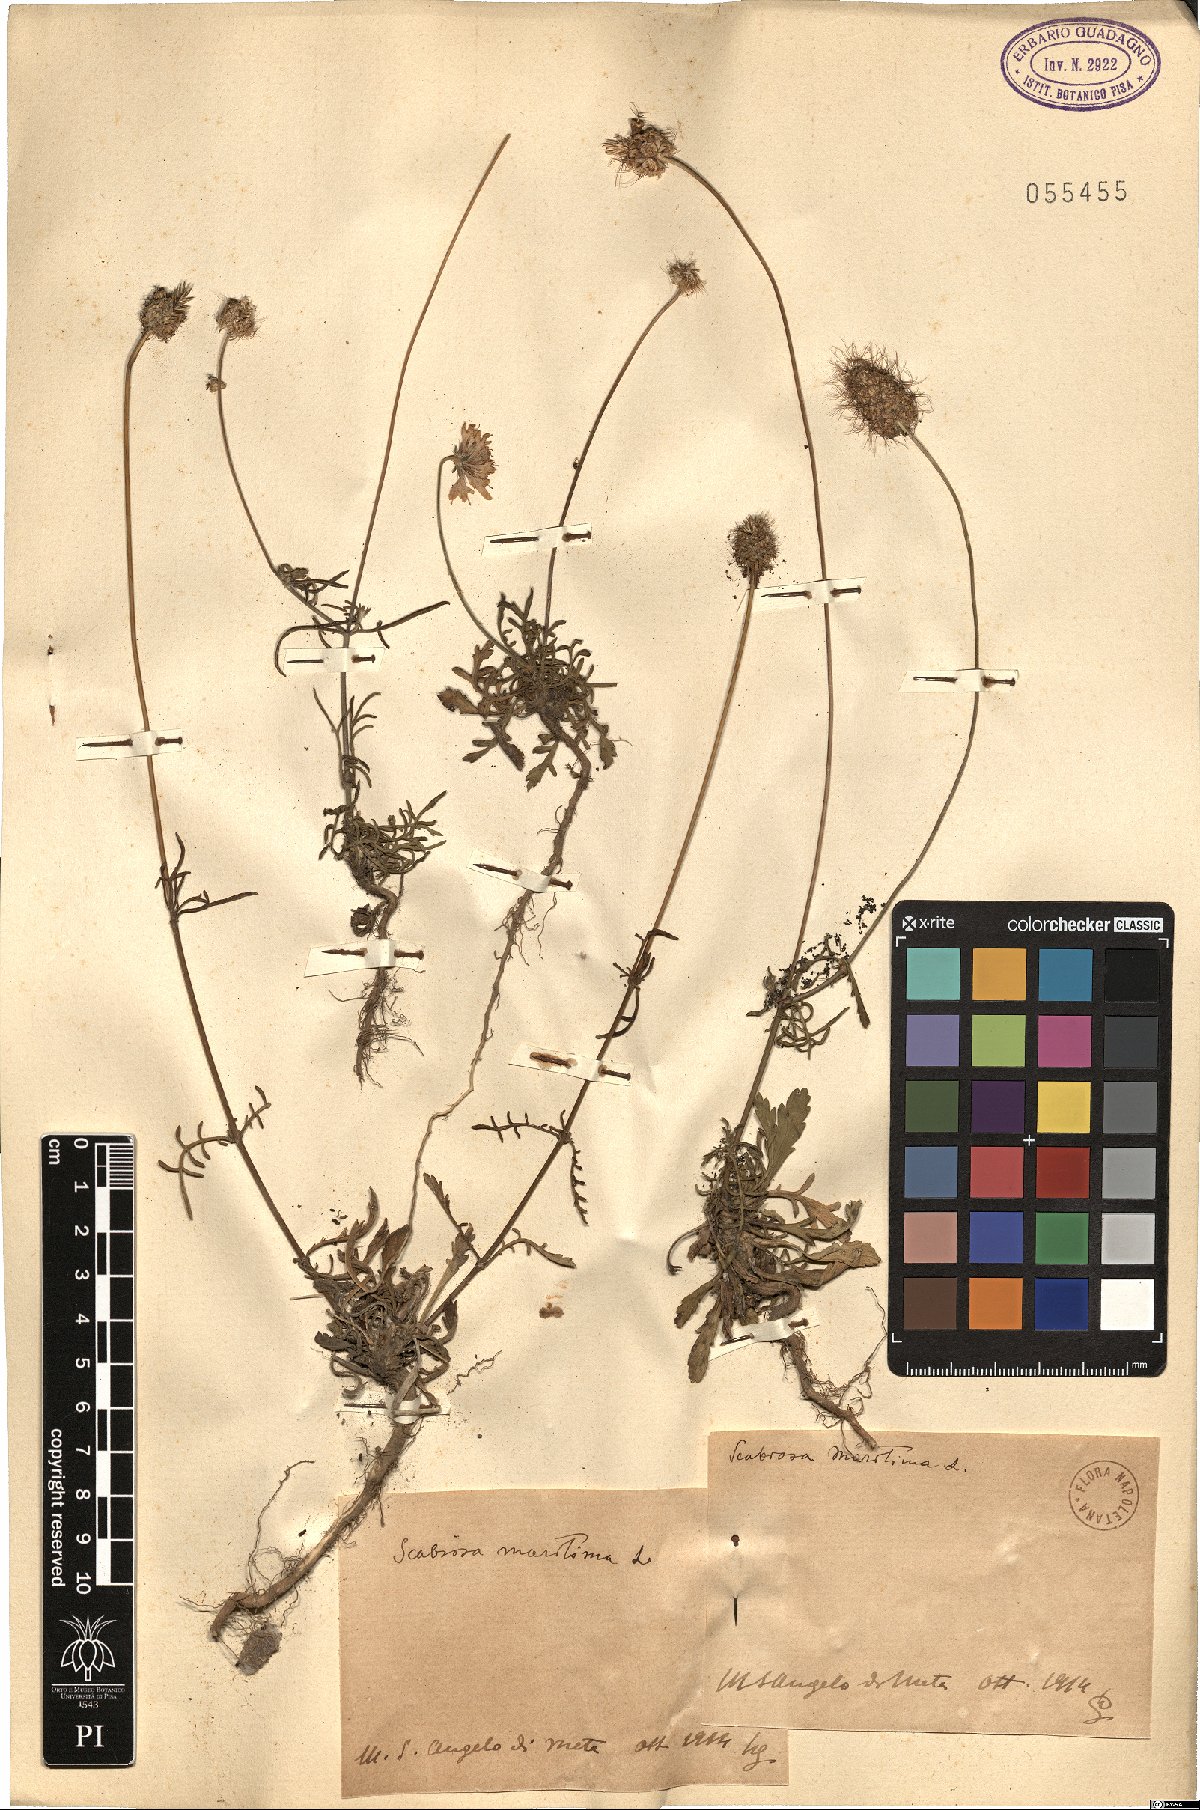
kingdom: Plantae
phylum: Tracheophyta
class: Magnoliopsida
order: Dipsacales
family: Caprifoliaceae
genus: Sixalix
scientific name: Sixalix maritima
